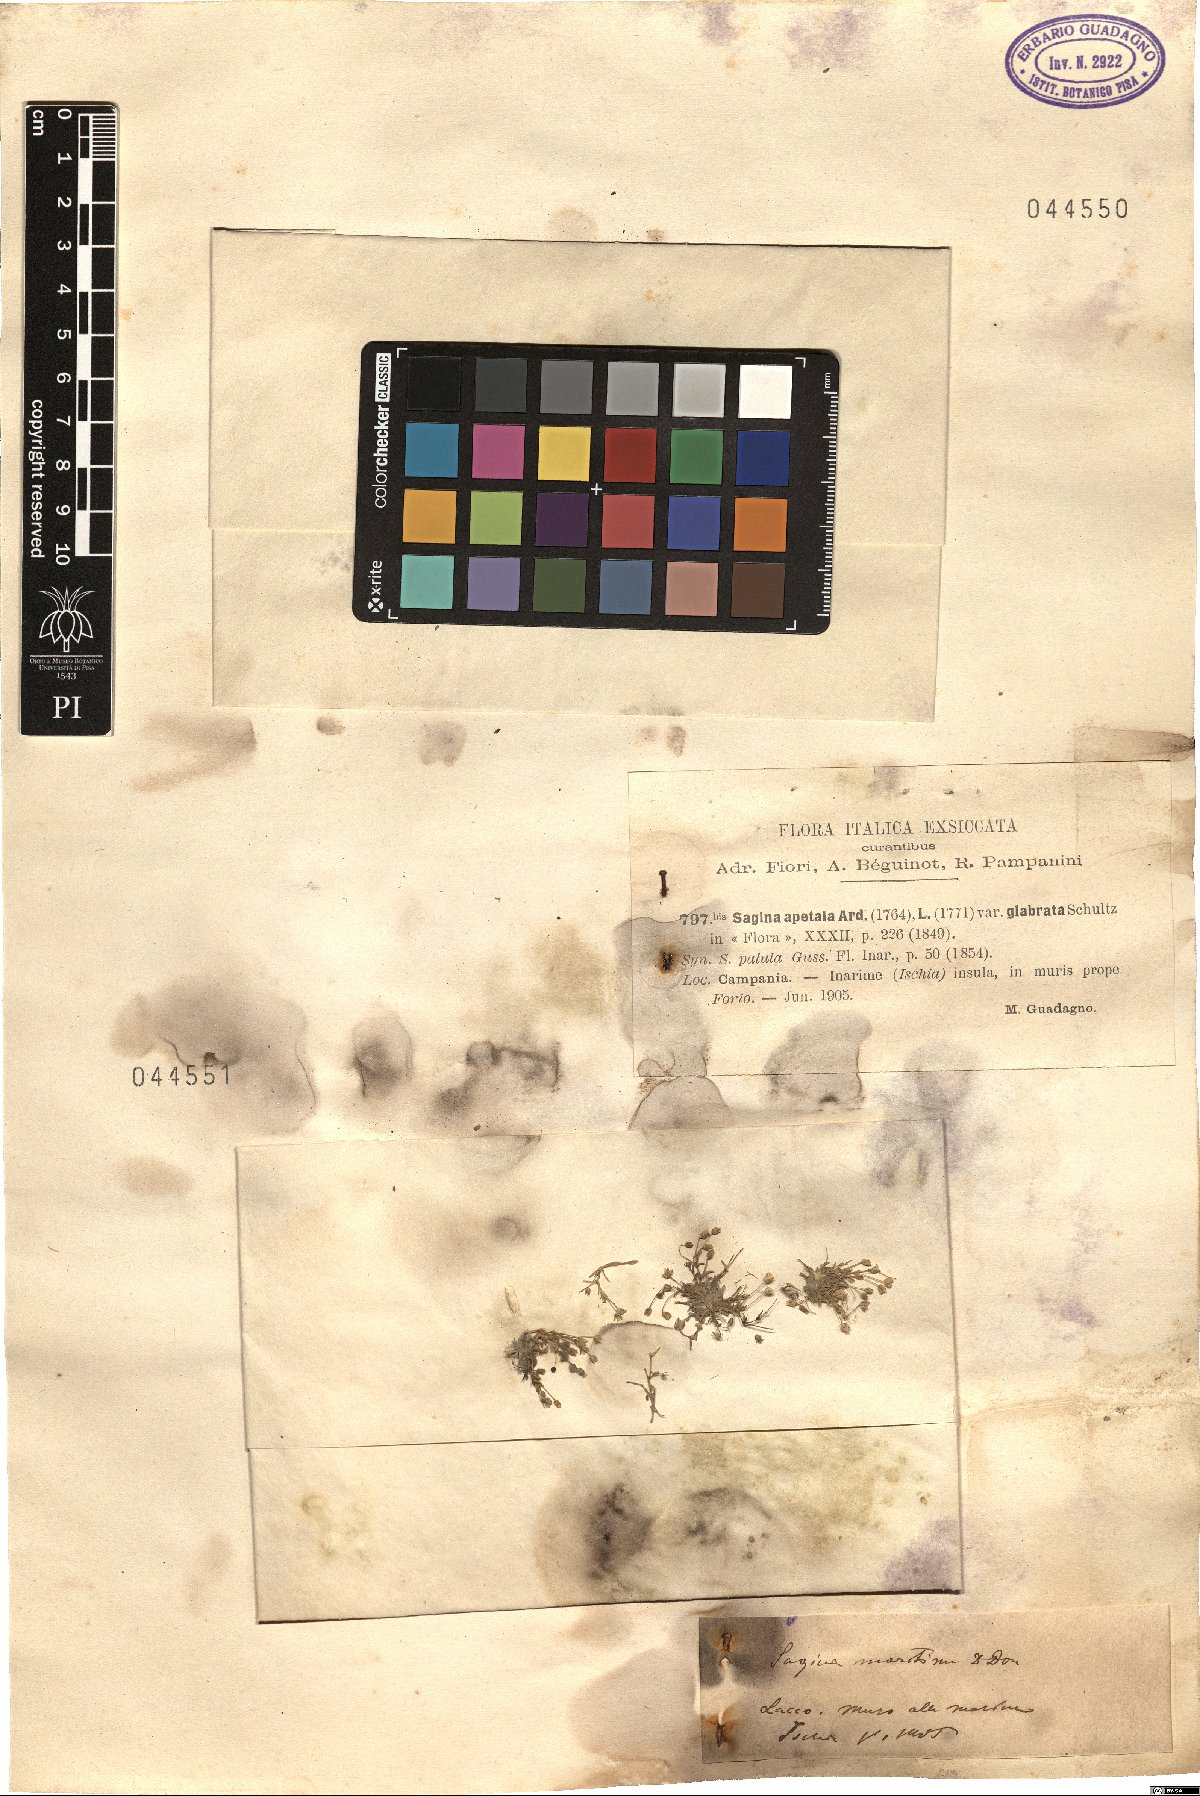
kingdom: Plantae
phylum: Tracheophyta
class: Magnoliopsida
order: Caryophyllales
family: Caryophyllaceae
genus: Sagina
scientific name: Sagina maritima
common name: Sea pearlwort
